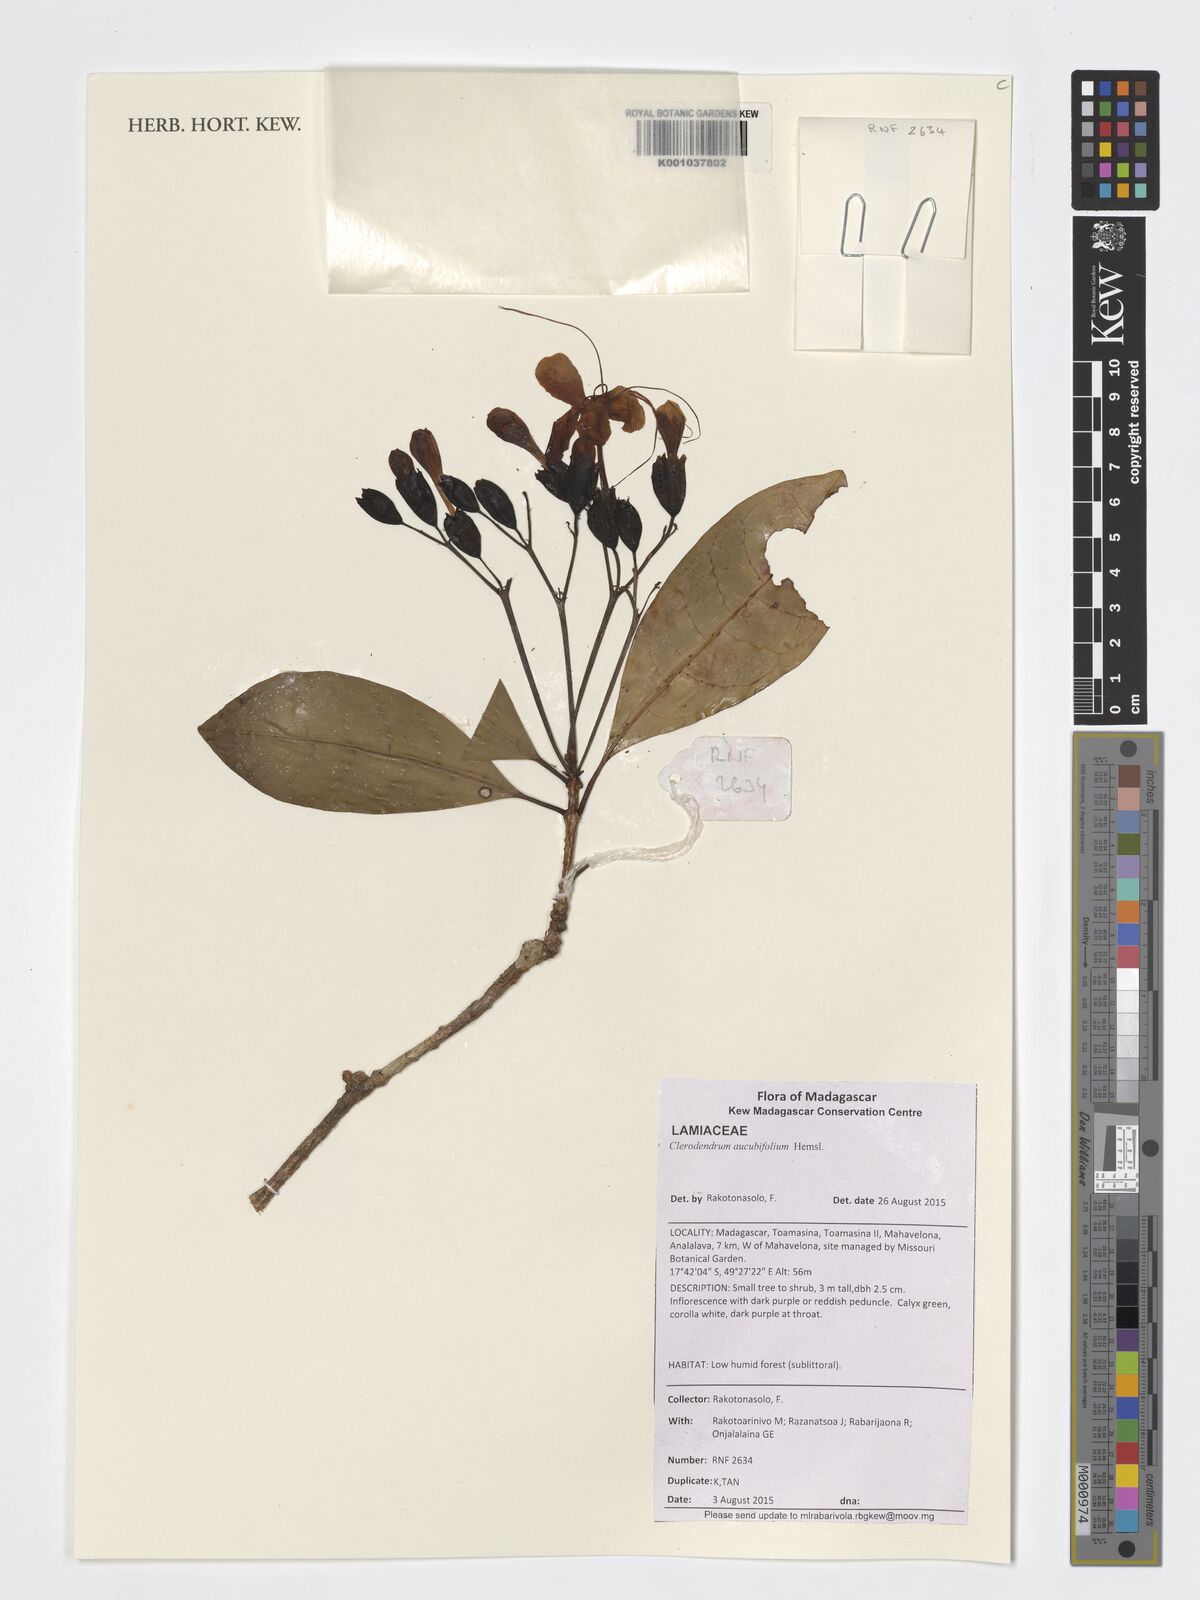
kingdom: Plantae
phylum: Tracheophyta
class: Magnoliopsida
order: Lamiales
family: Lamiaceae
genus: Clerodendrum
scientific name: Clerodendrum aucubifolium
